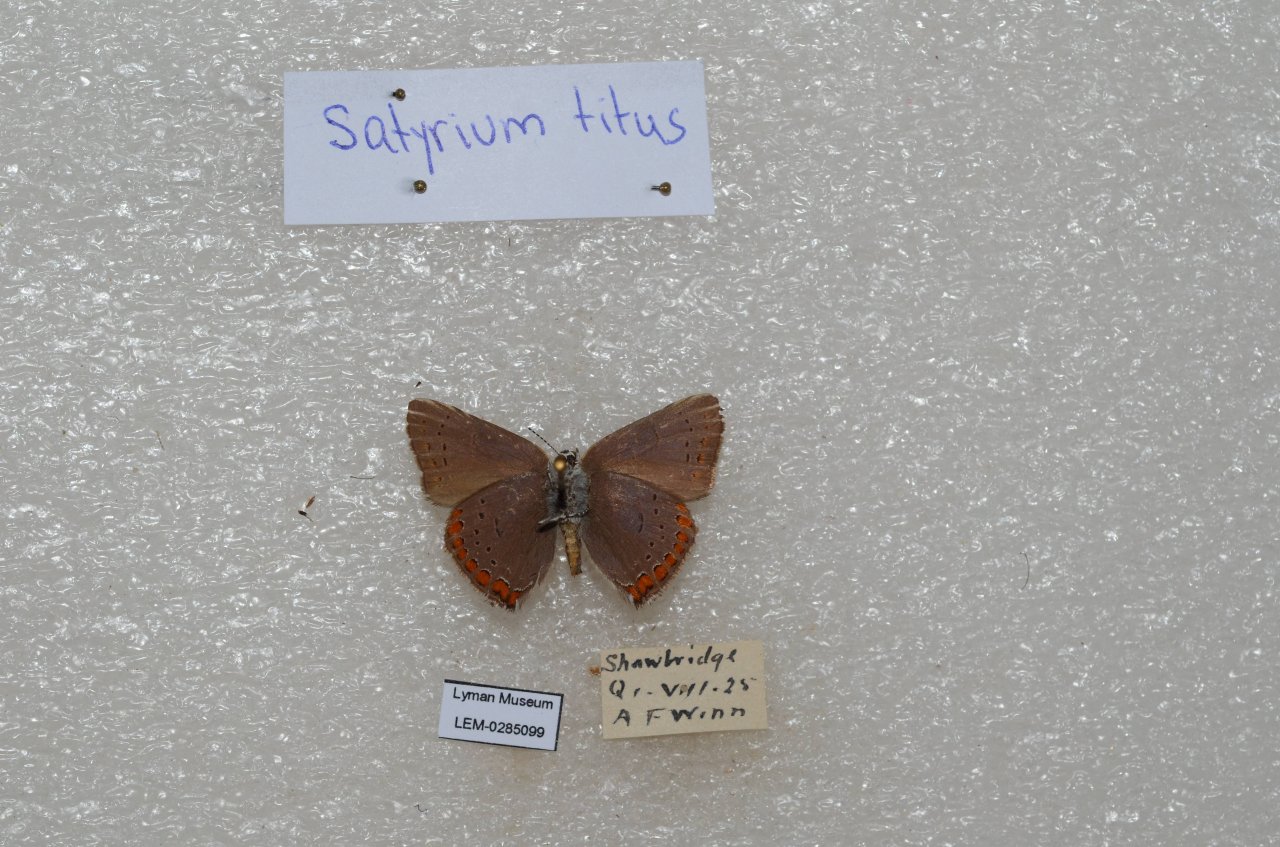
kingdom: Animalia
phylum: Arthropoda
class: Insecta
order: Lepidoptera
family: Lycaenidae
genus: Harkenclenus
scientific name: Harkenclenus titus
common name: Coral Hairstreak
